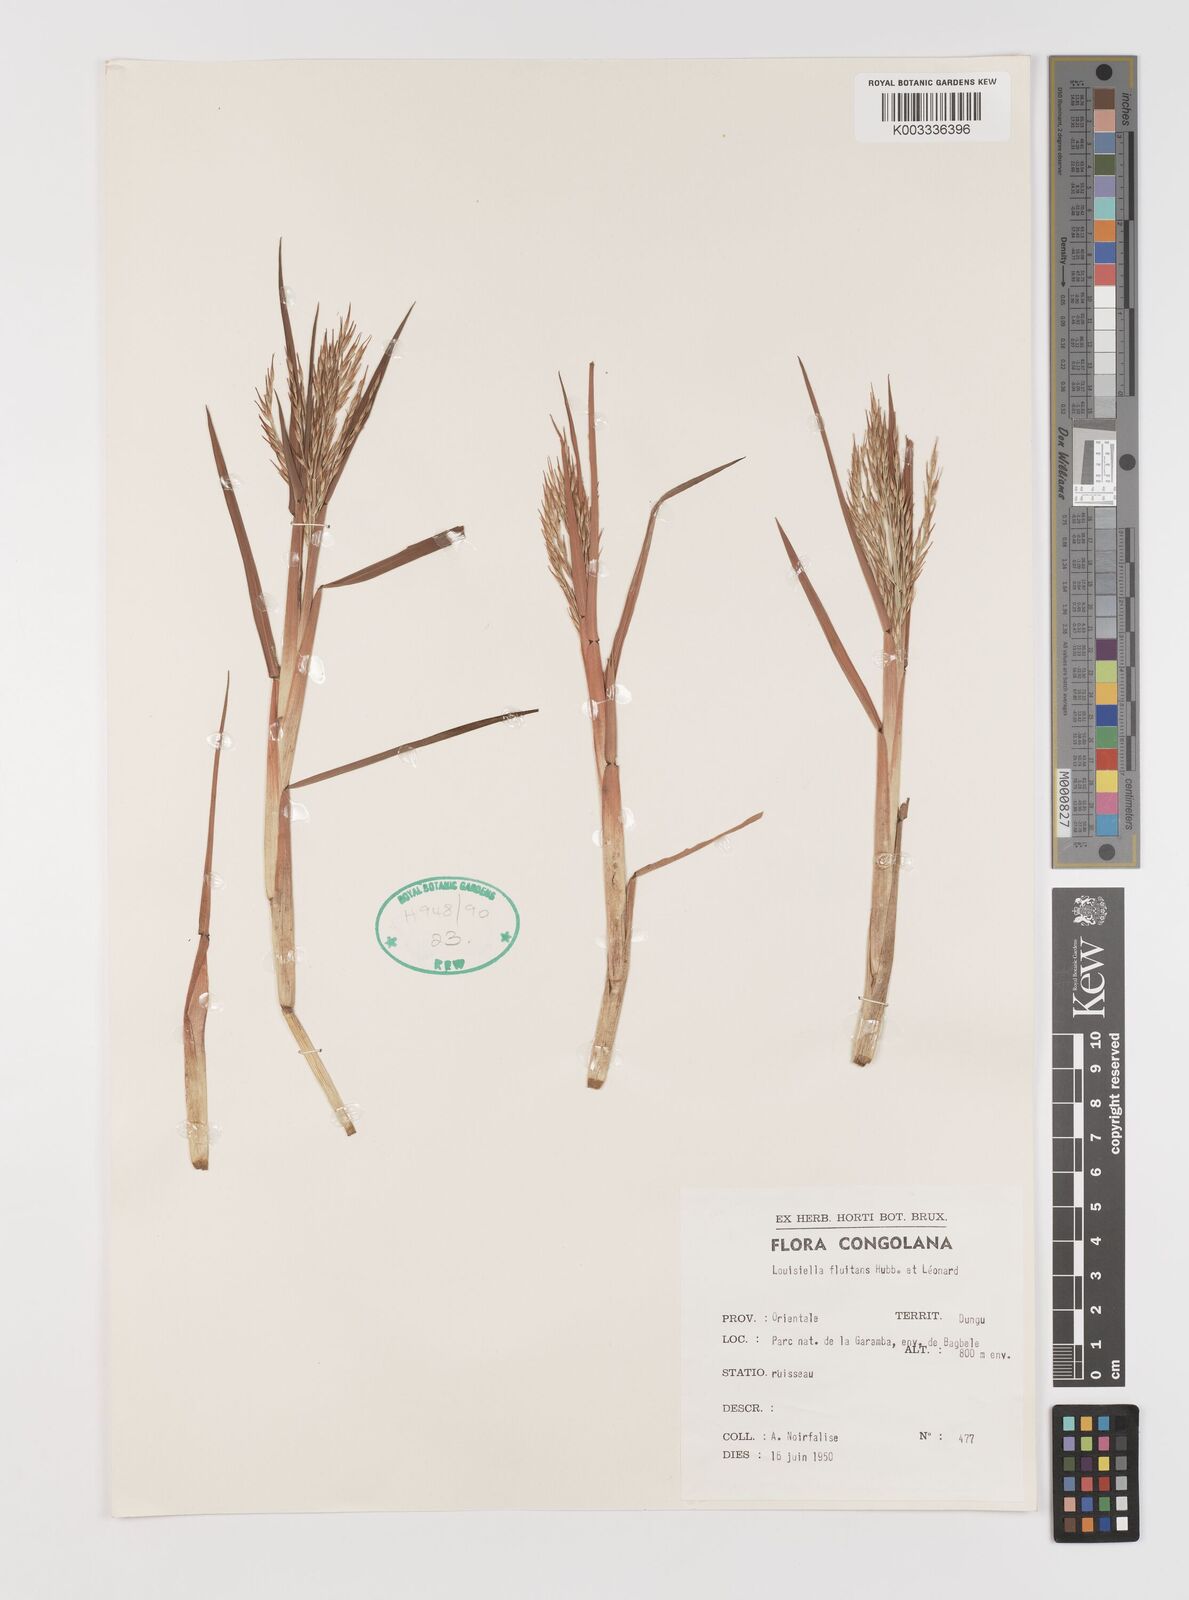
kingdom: Plantae
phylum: Tracheophyta
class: Liliopsida
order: Poales
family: Poaceae
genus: Louisiella
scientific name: Louisiella fluitans
